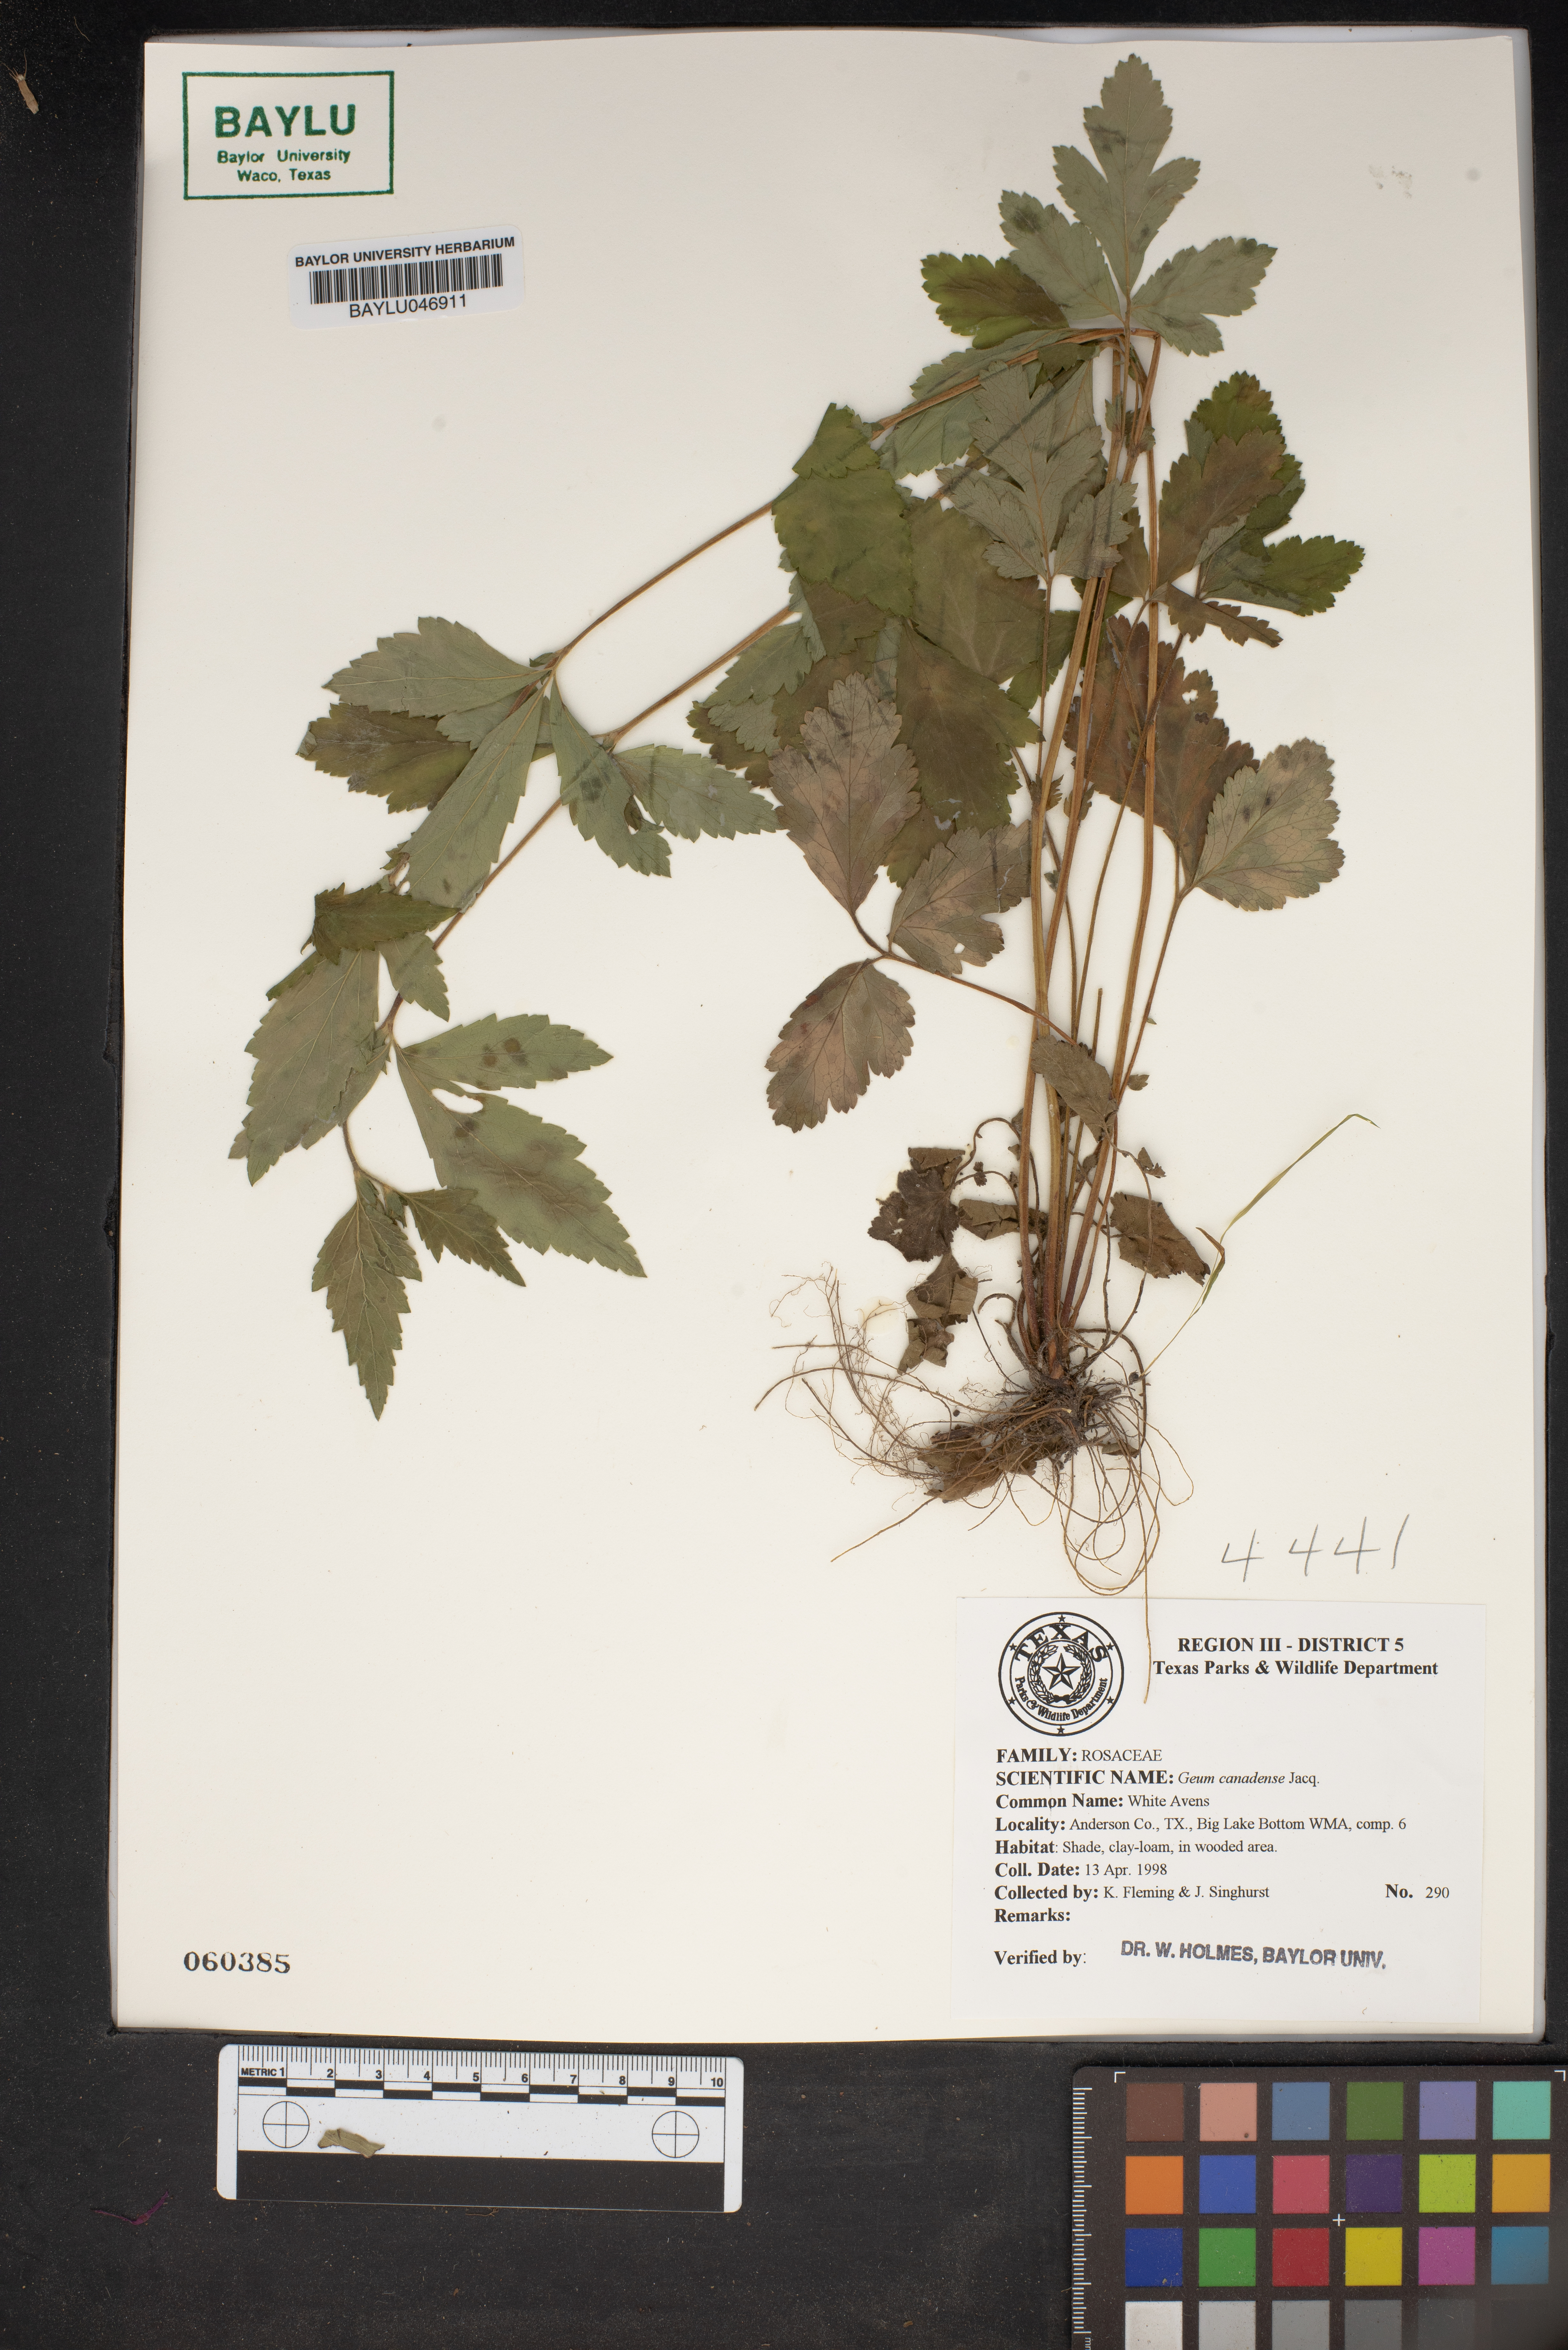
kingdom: Plantae
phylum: Tracheophyta
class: Magnoliopsida
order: Rosales
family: Rosaceae
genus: Geum
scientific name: Geum canadense
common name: White avens
